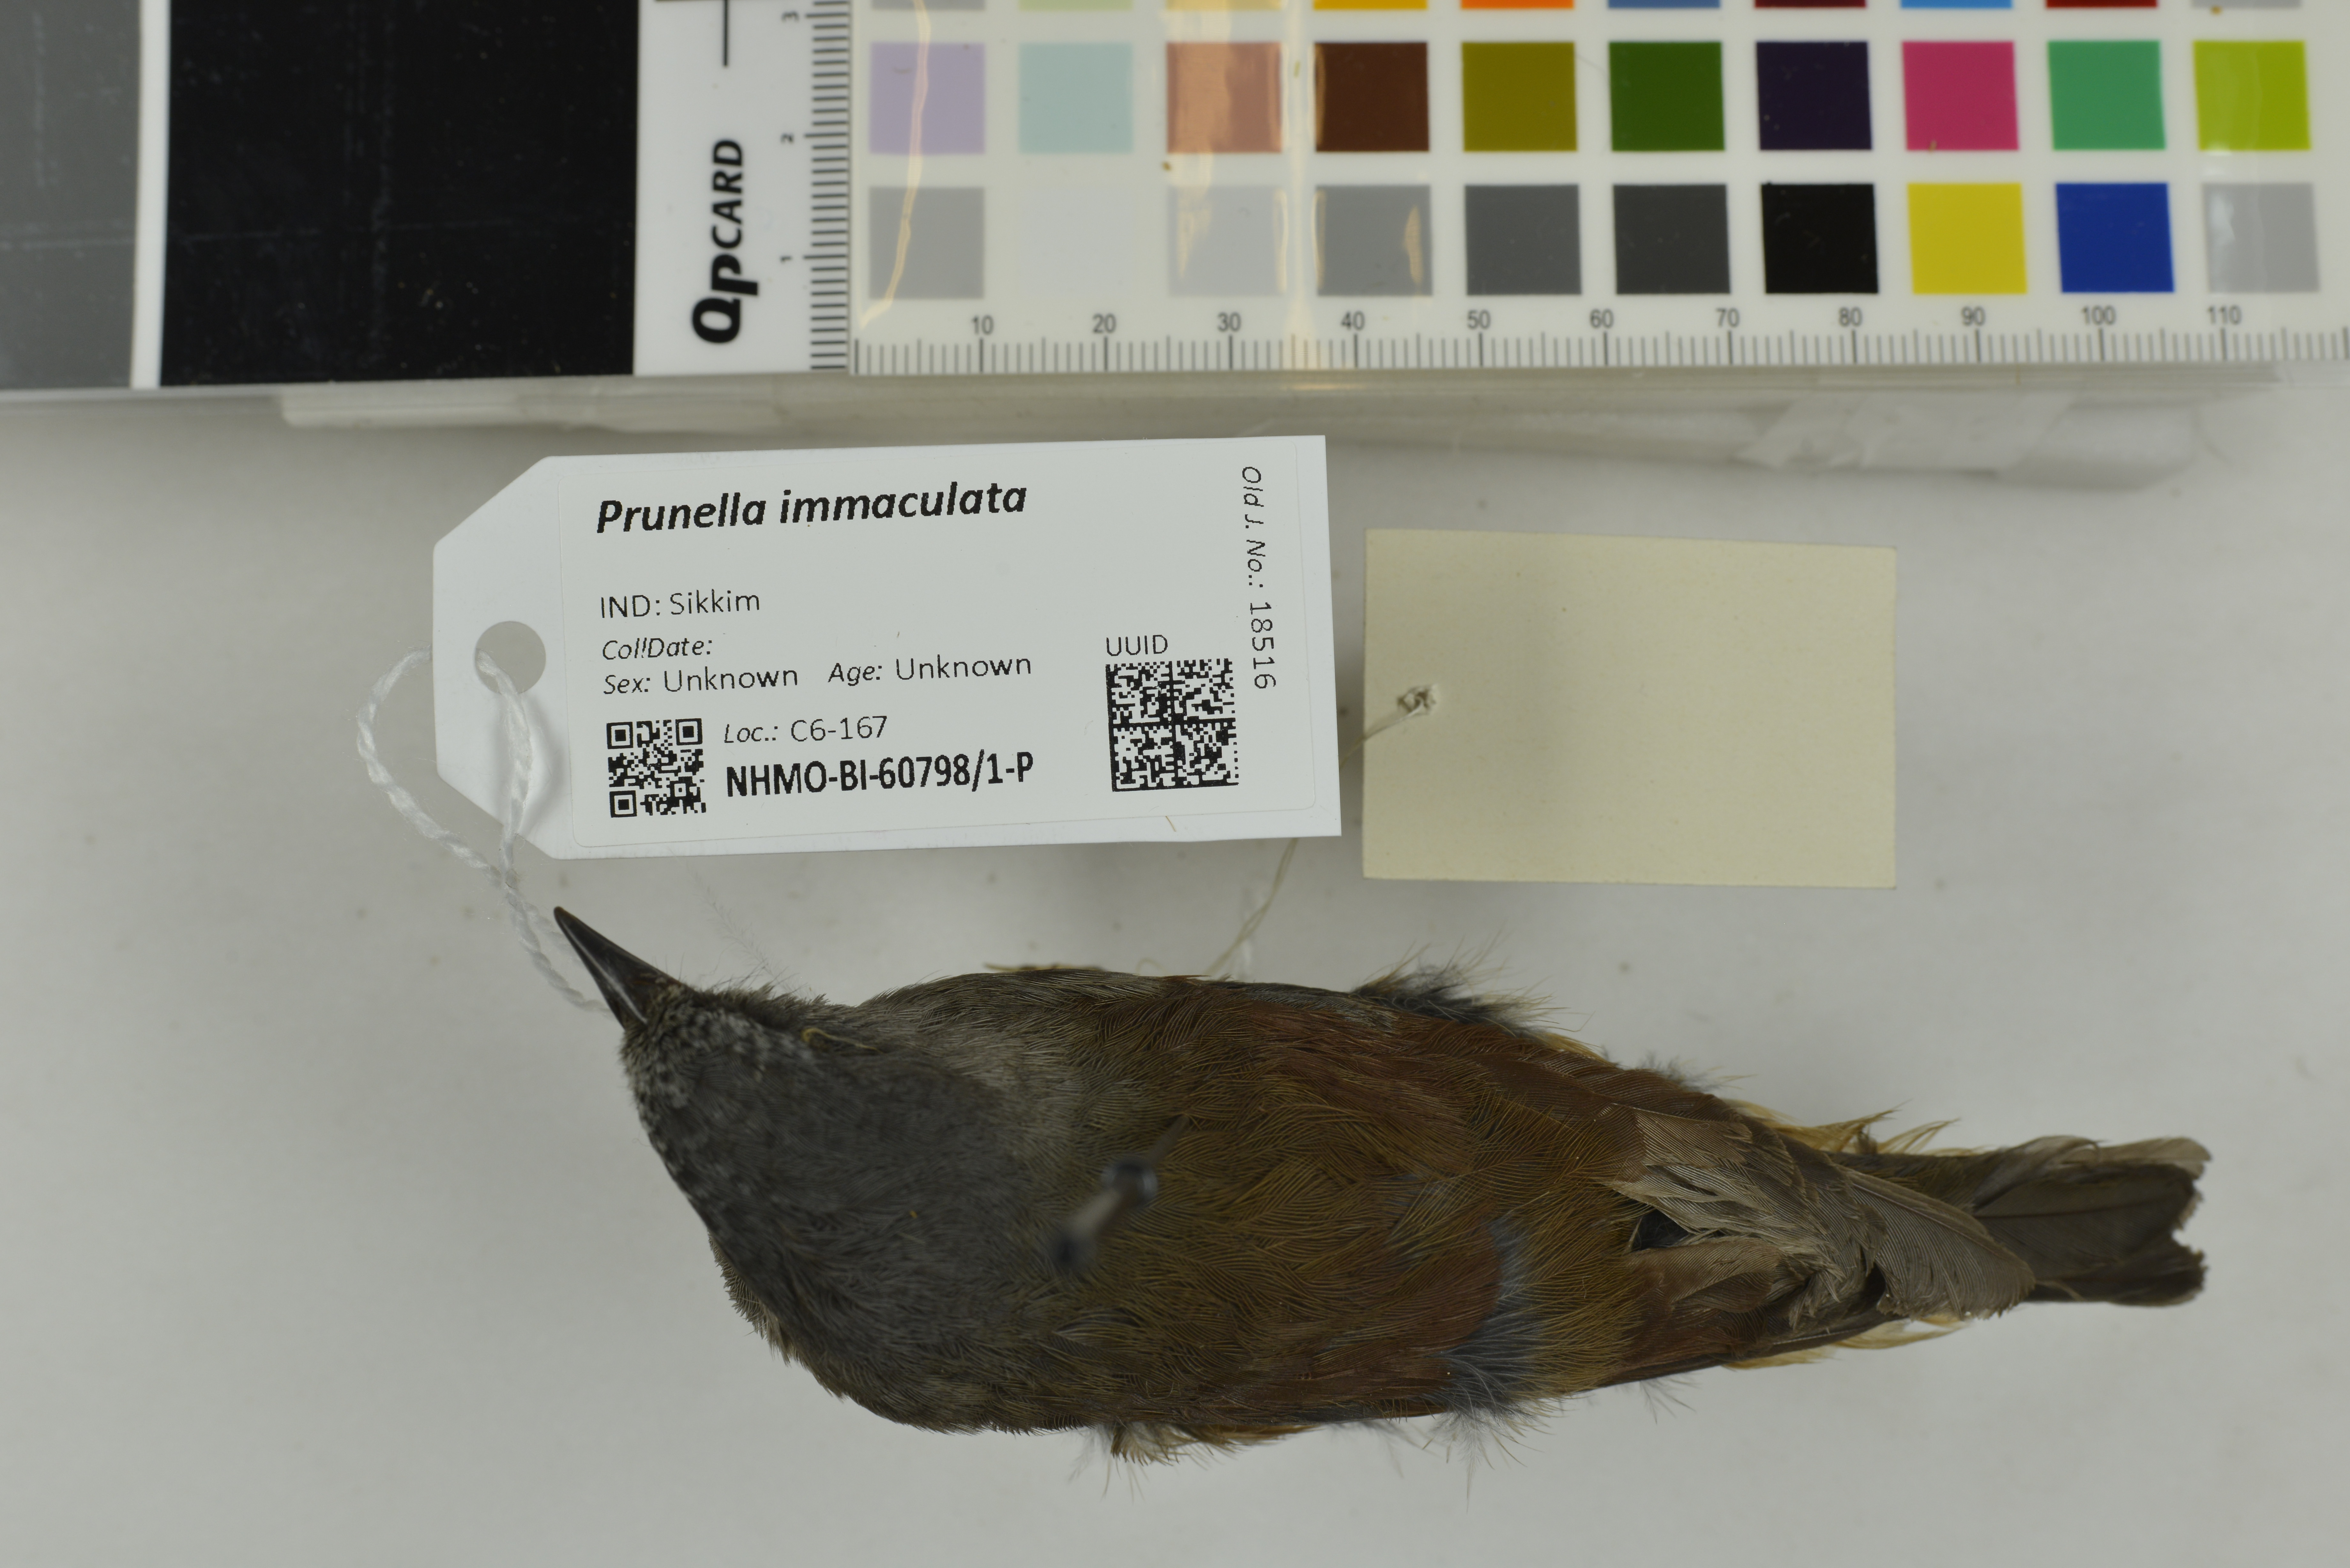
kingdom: Animalia
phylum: Chordata
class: Aves
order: Passeriformes
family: Prunellidae
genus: Prunella
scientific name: Prunella immaculata
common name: Maroon-backed accentor
